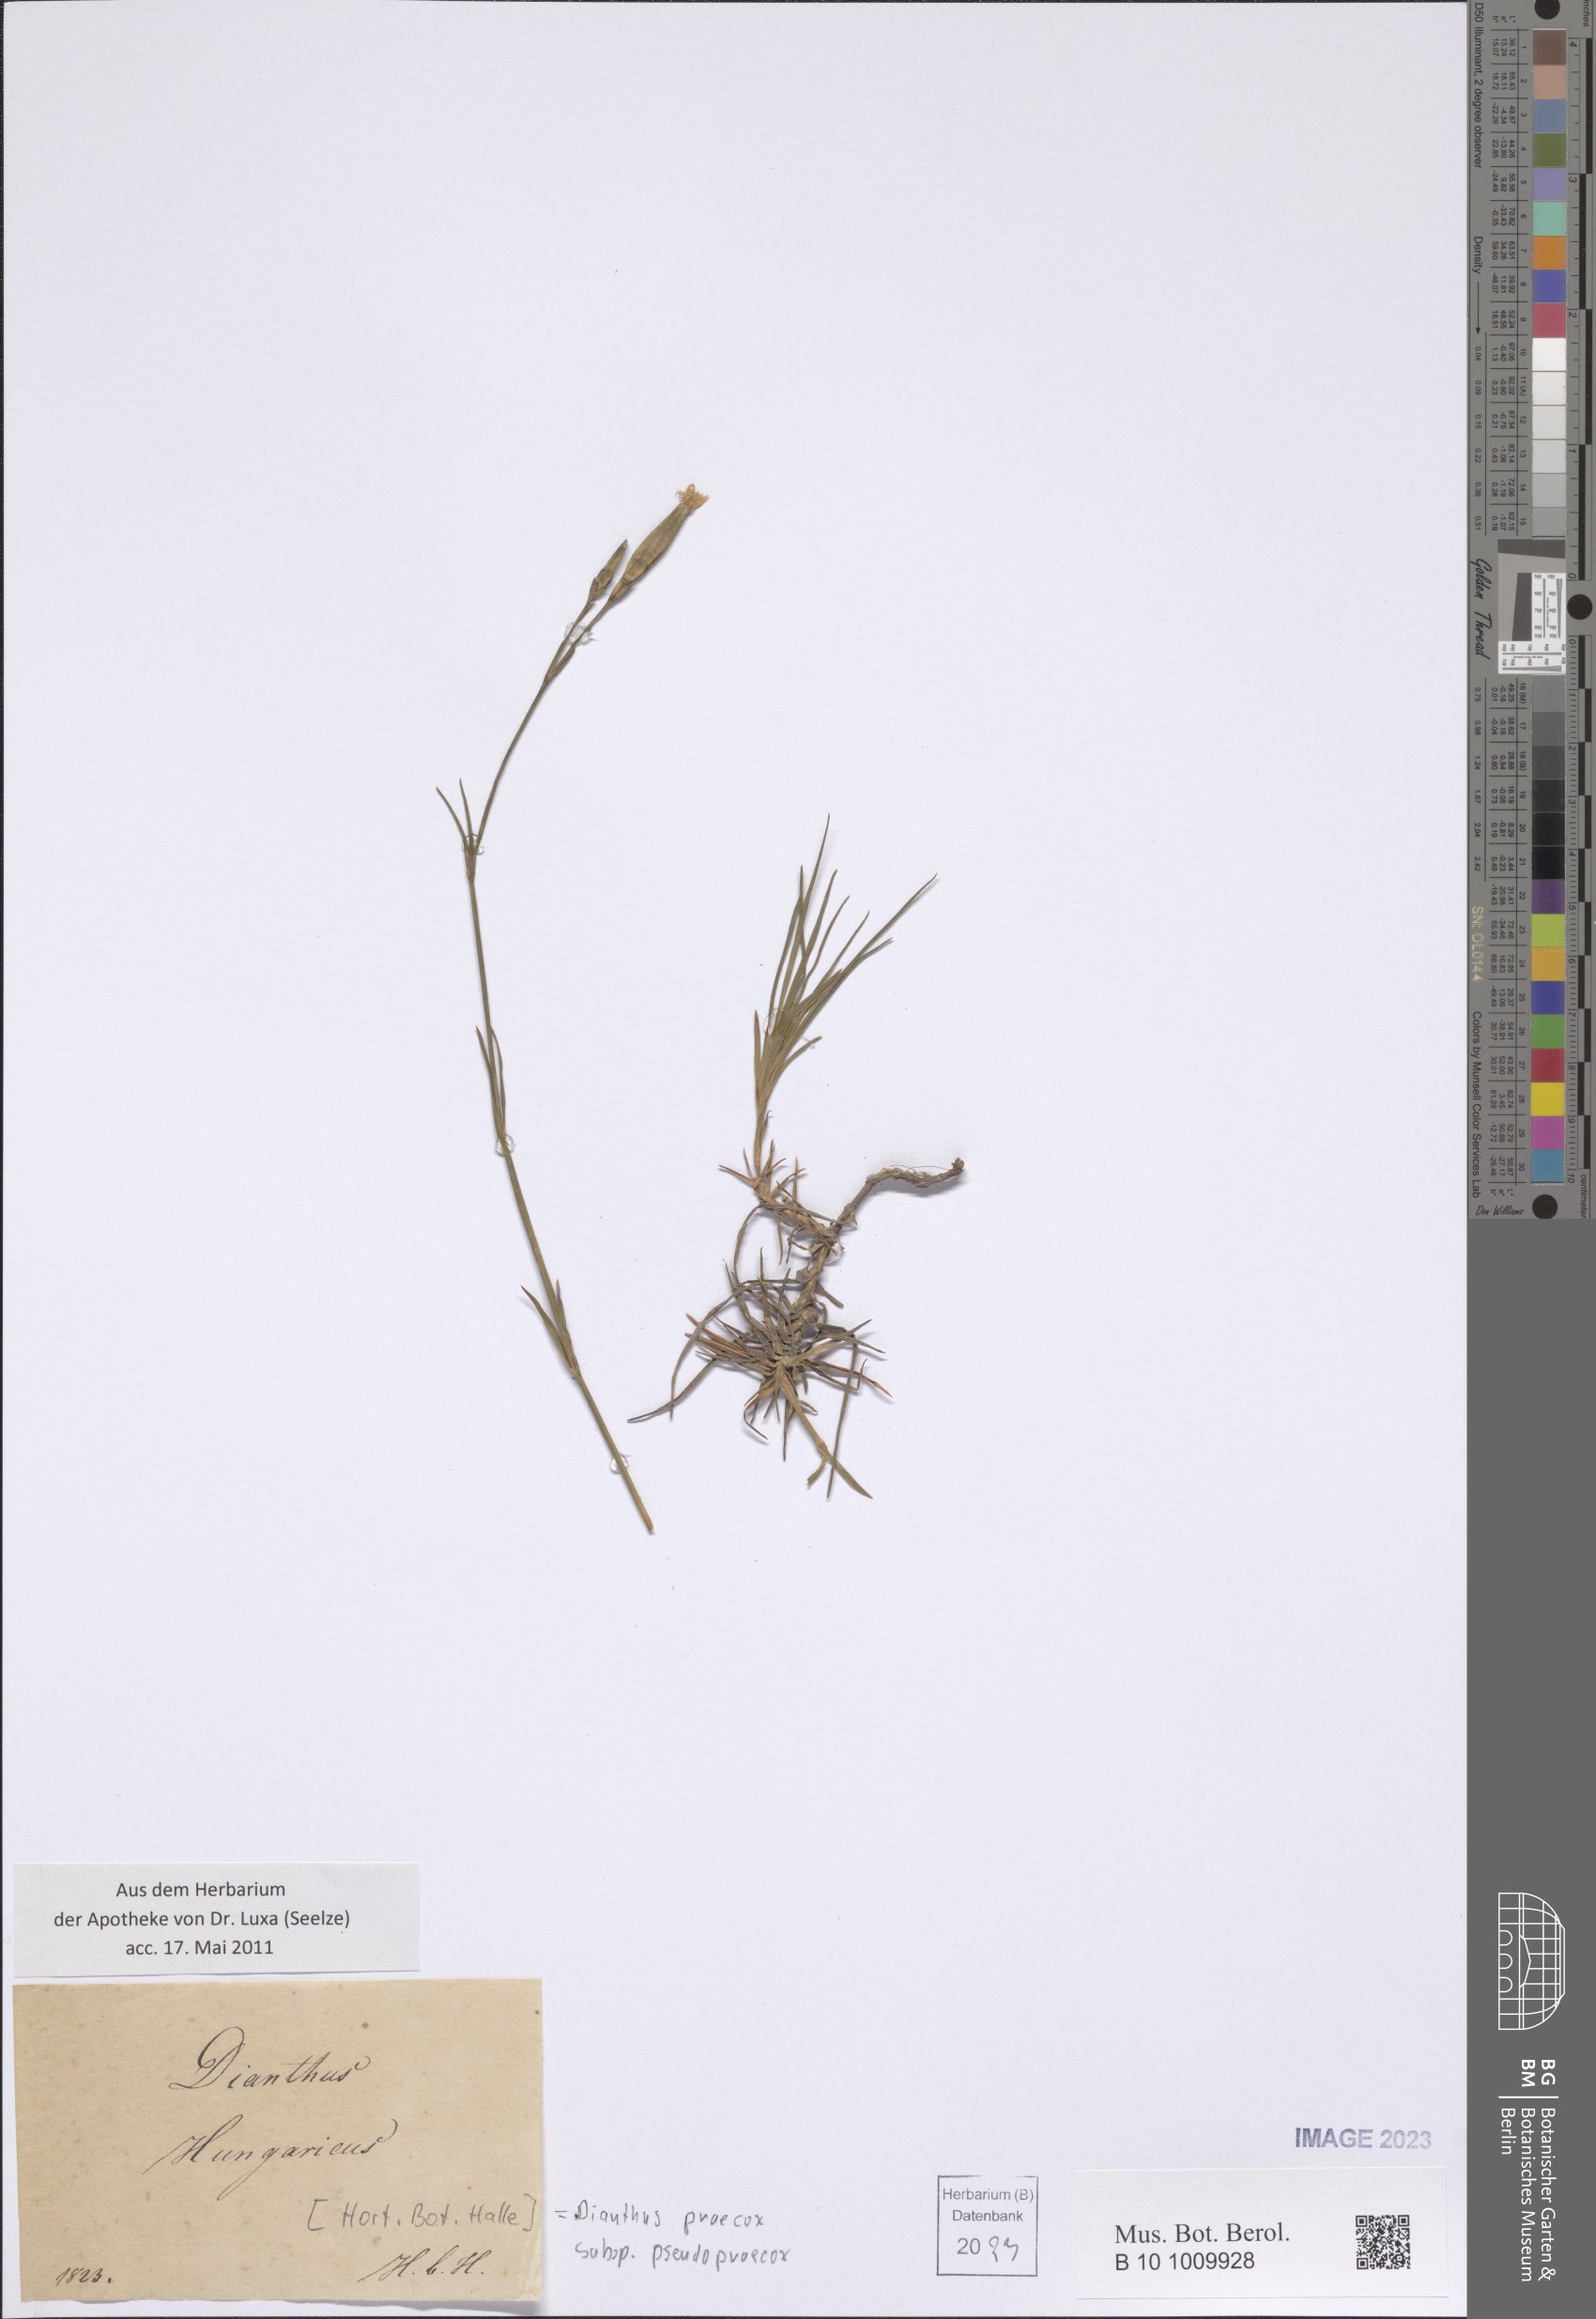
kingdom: Plantae
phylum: Tracheophyta
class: Magnoliopsida
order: Caryophyllales
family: Caryophyllaceae
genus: Dianthus
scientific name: Dianthus praecox
